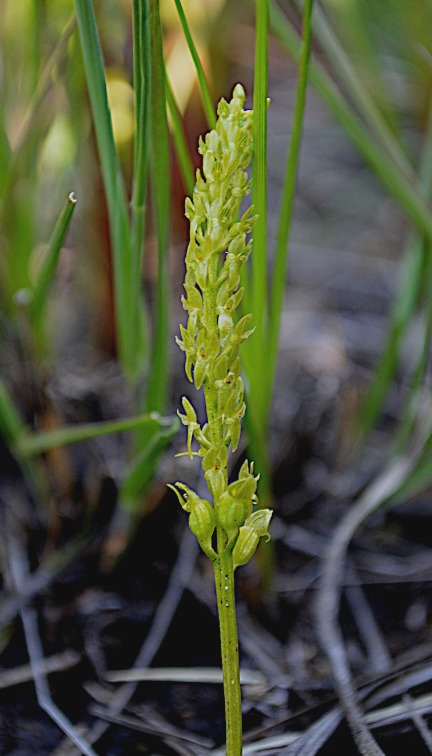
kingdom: Plantae
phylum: Tracheophyta
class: Liliopsida
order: Asparagales
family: Orchidaceae
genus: Hammarbya
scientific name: Hammarbya paludosa
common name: Hjertelæbe
